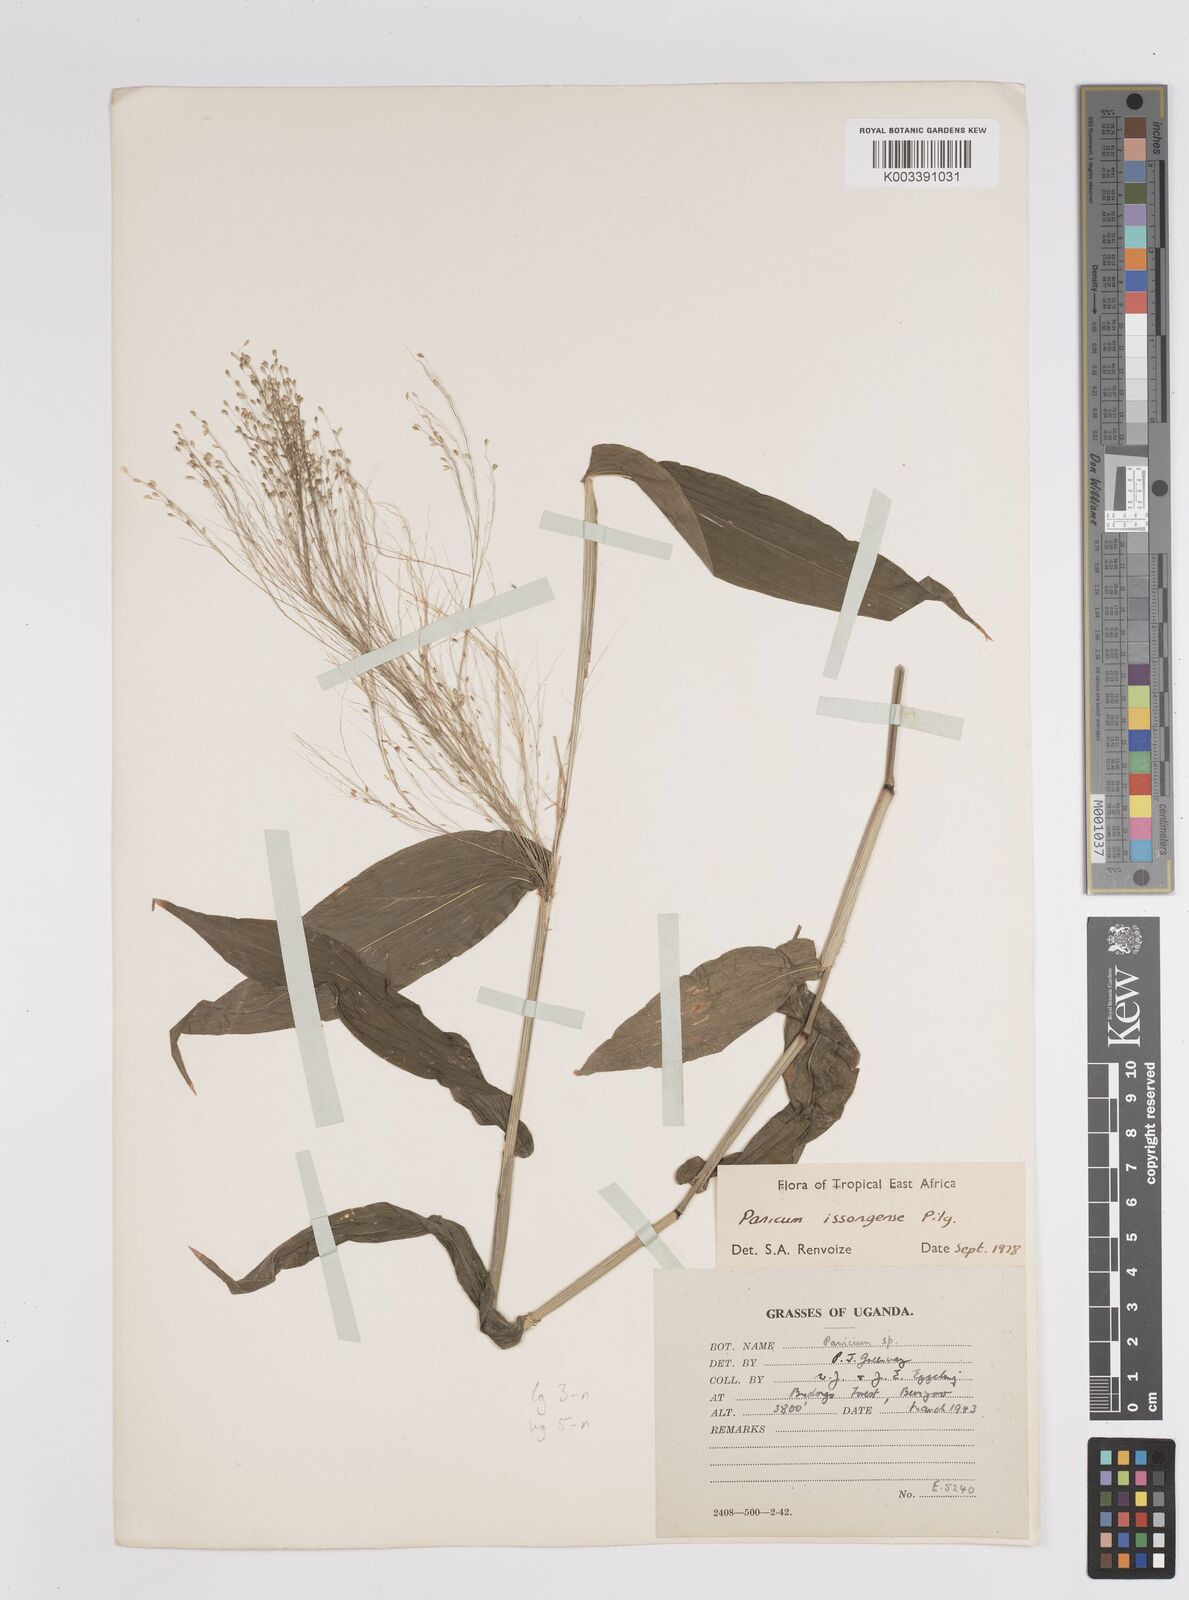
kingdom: Plantae
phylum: Tracheophyta
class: Liliopsida
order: Poales
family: Poaceae
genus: Panicum
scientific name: Panicum issongense
